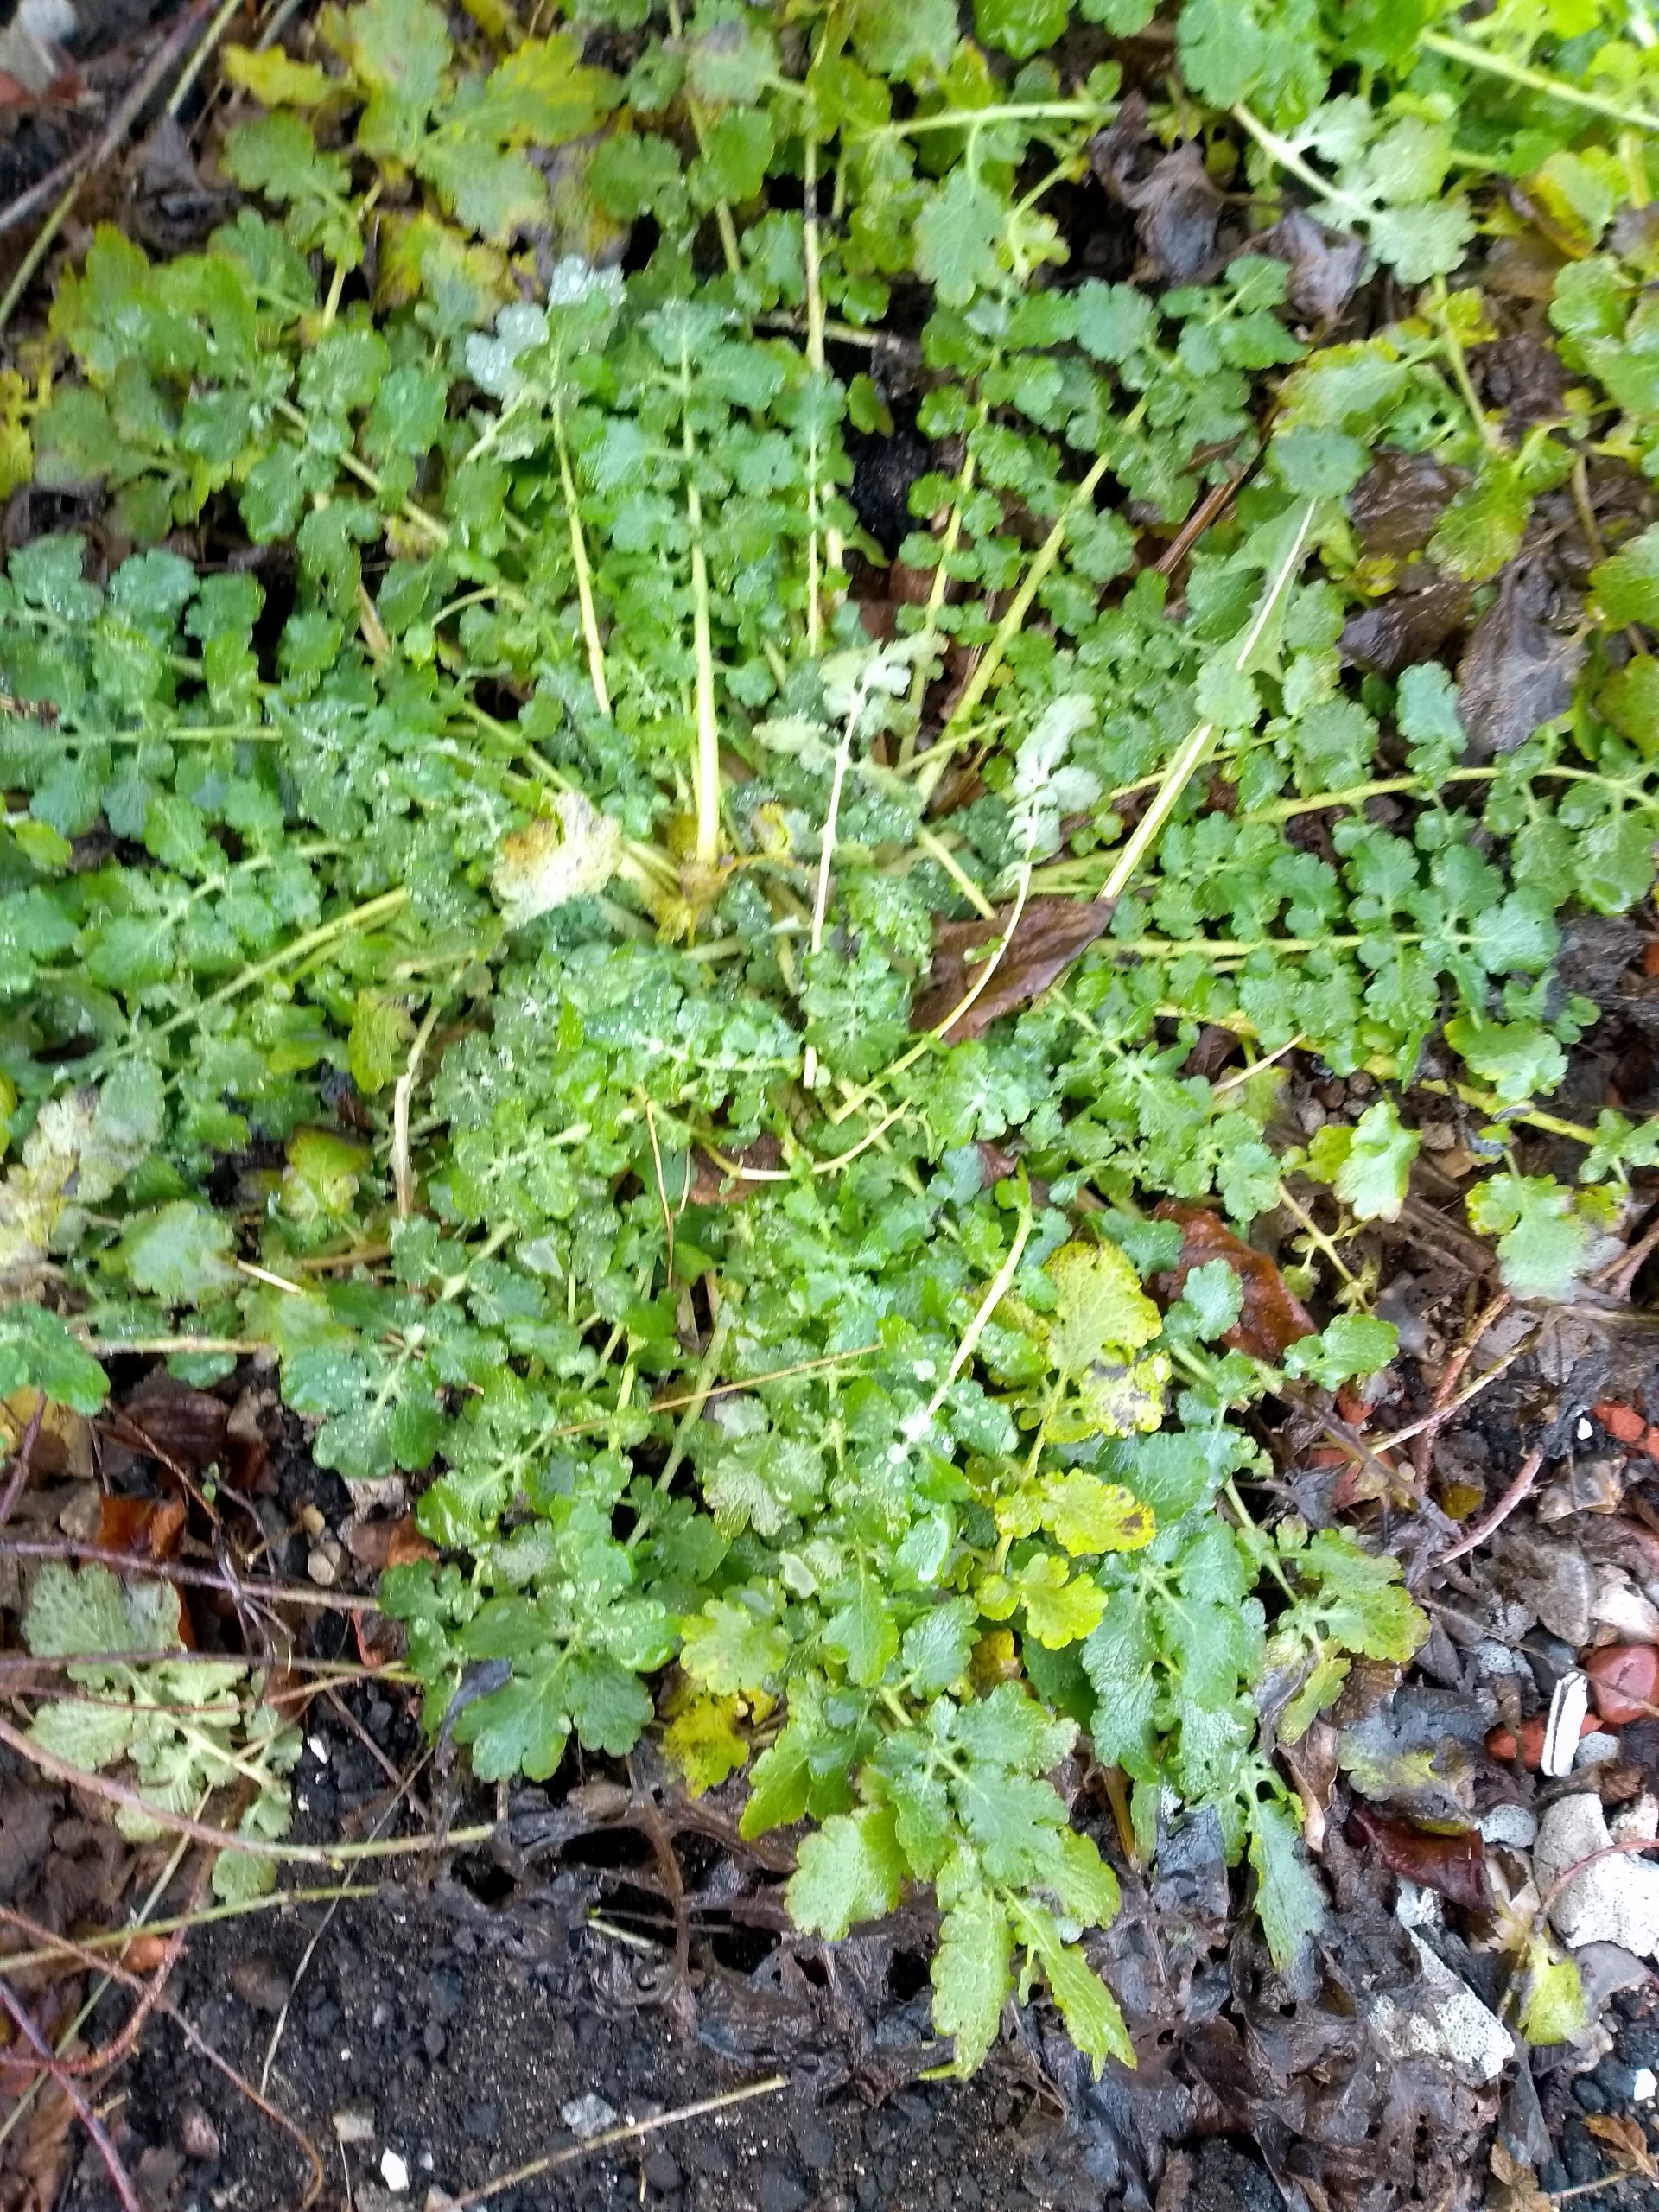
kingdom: Plantae
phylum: Tracheophyta
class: Magnoliopsida
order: Ranunculales
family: Papaveraceae
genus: Chelidonium
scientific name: Chelidonium majus
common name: Svaleurt
